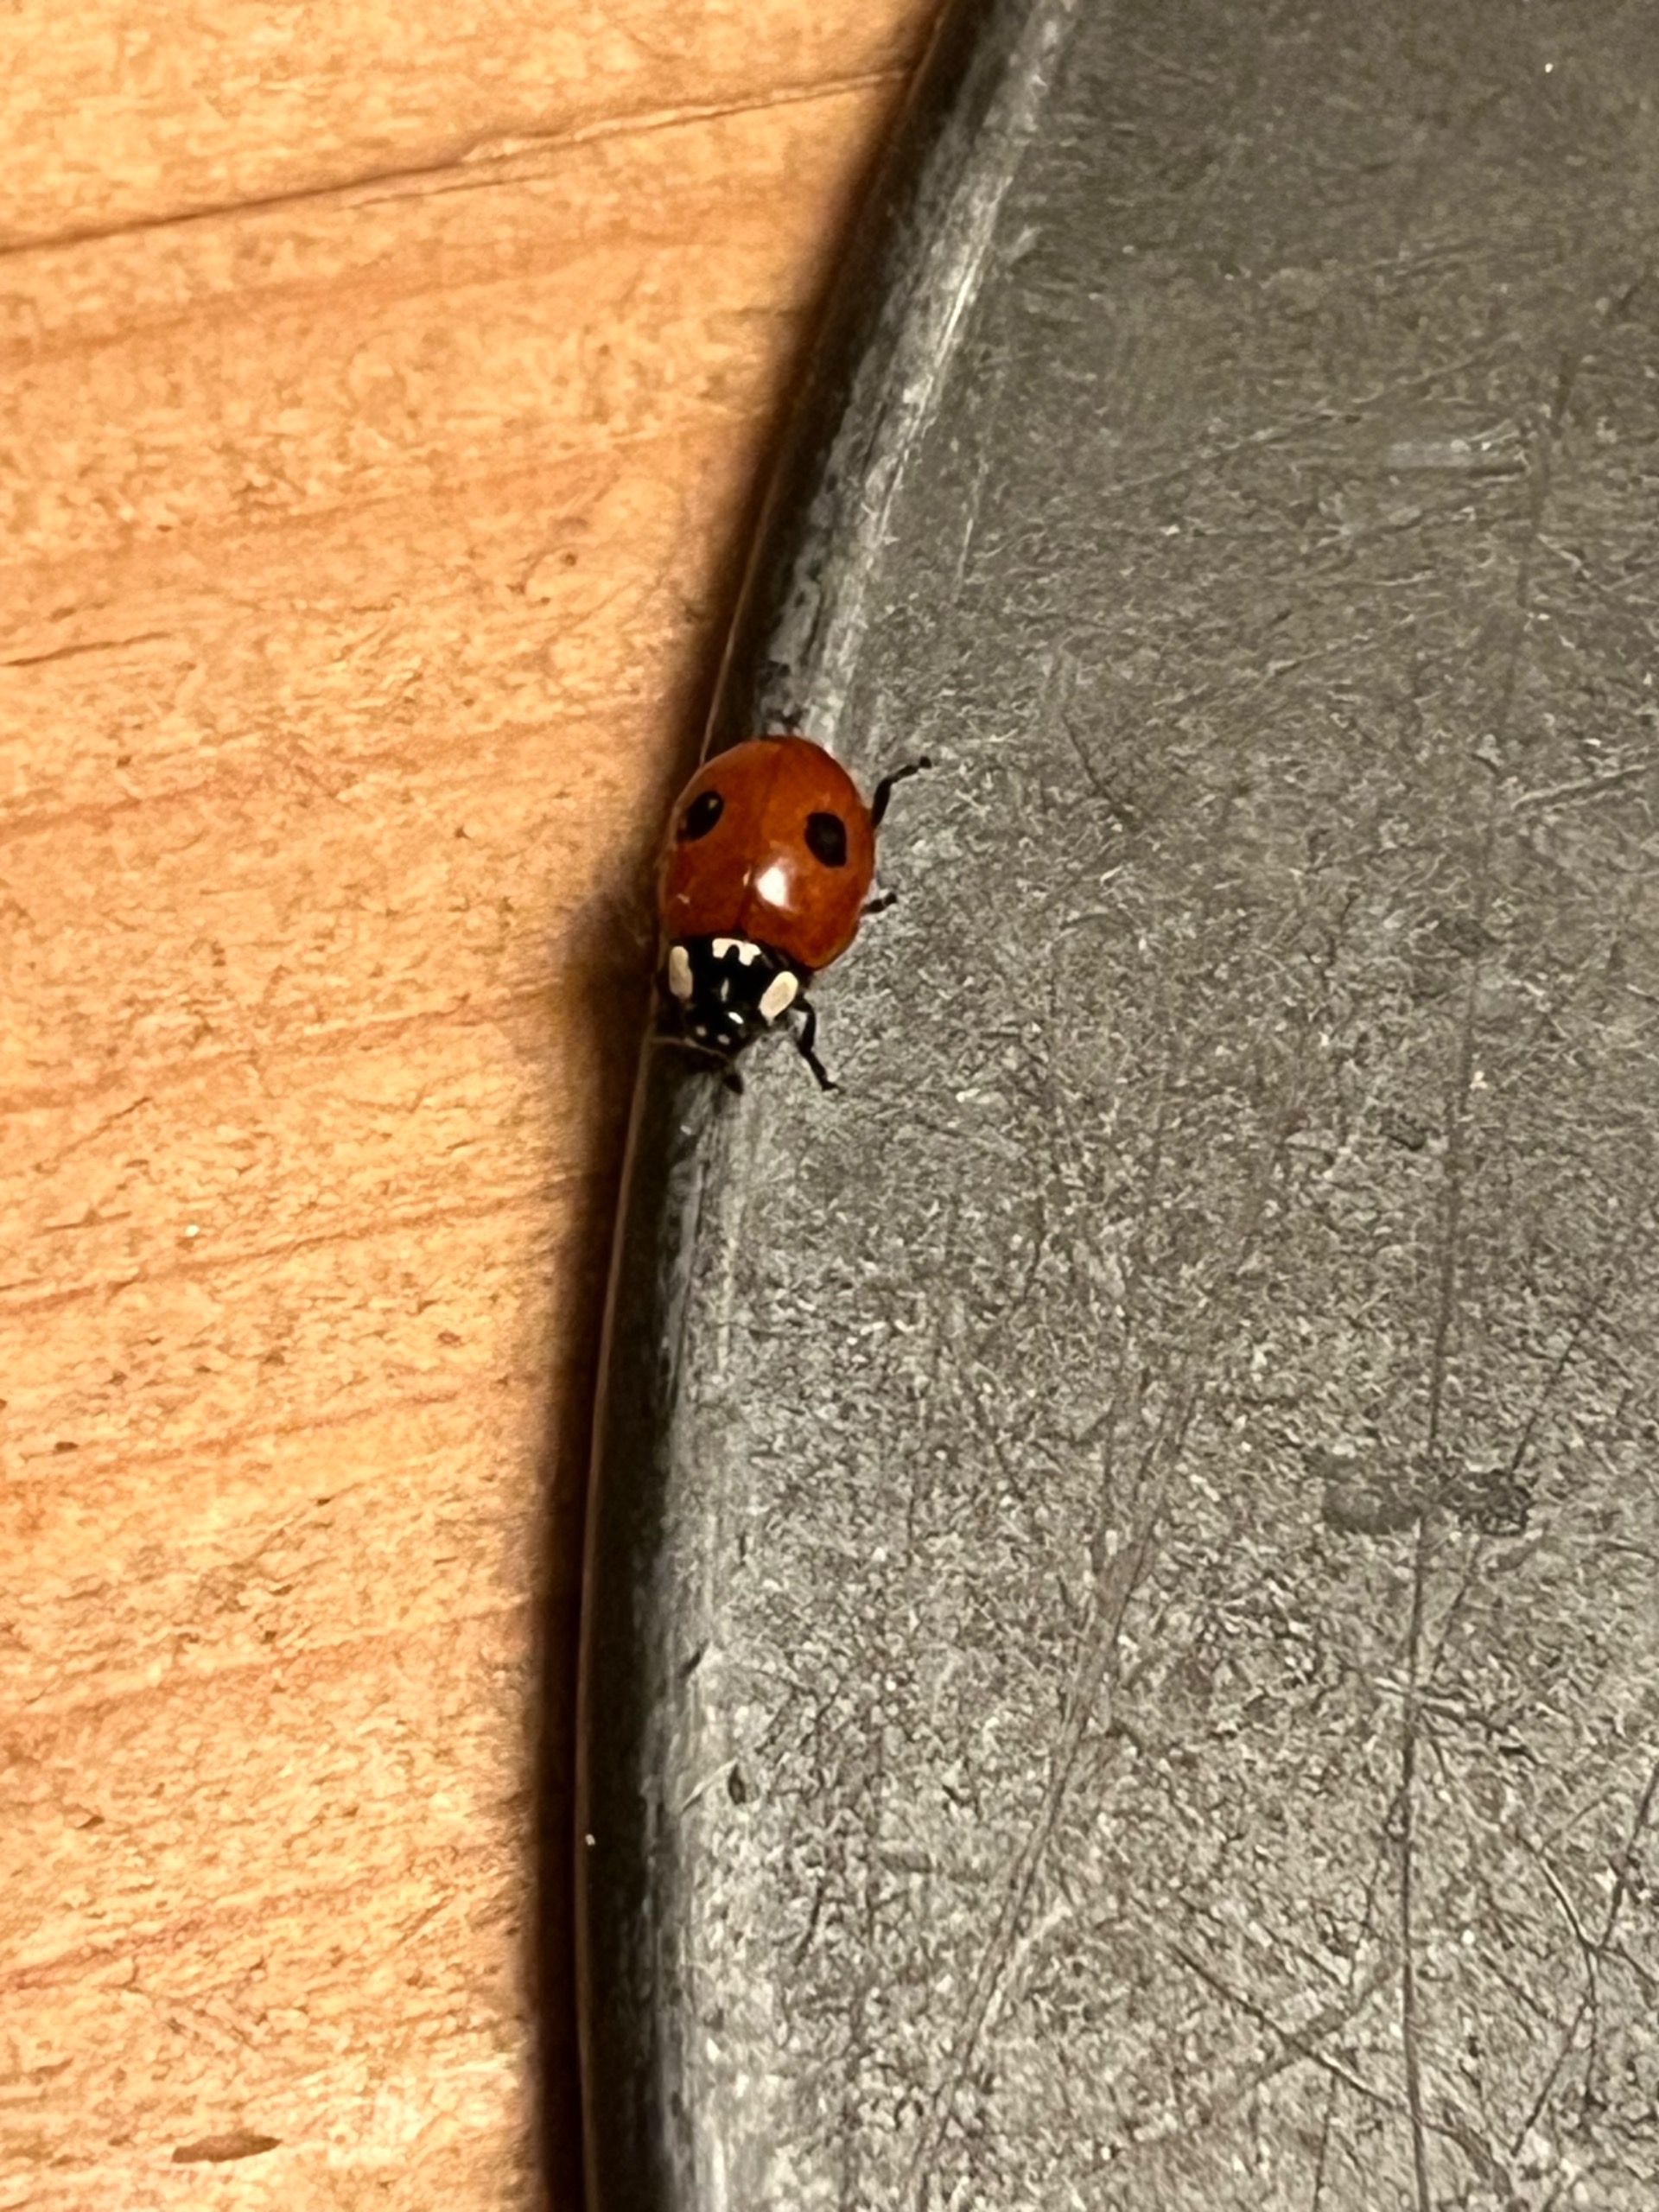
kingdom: Animalia
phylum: Arthropoda
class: Insecta
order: Coleoptera
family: Coccinellidae
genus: Adalia
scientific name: Adalia bipunctata
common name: Toplettet mariehøne
